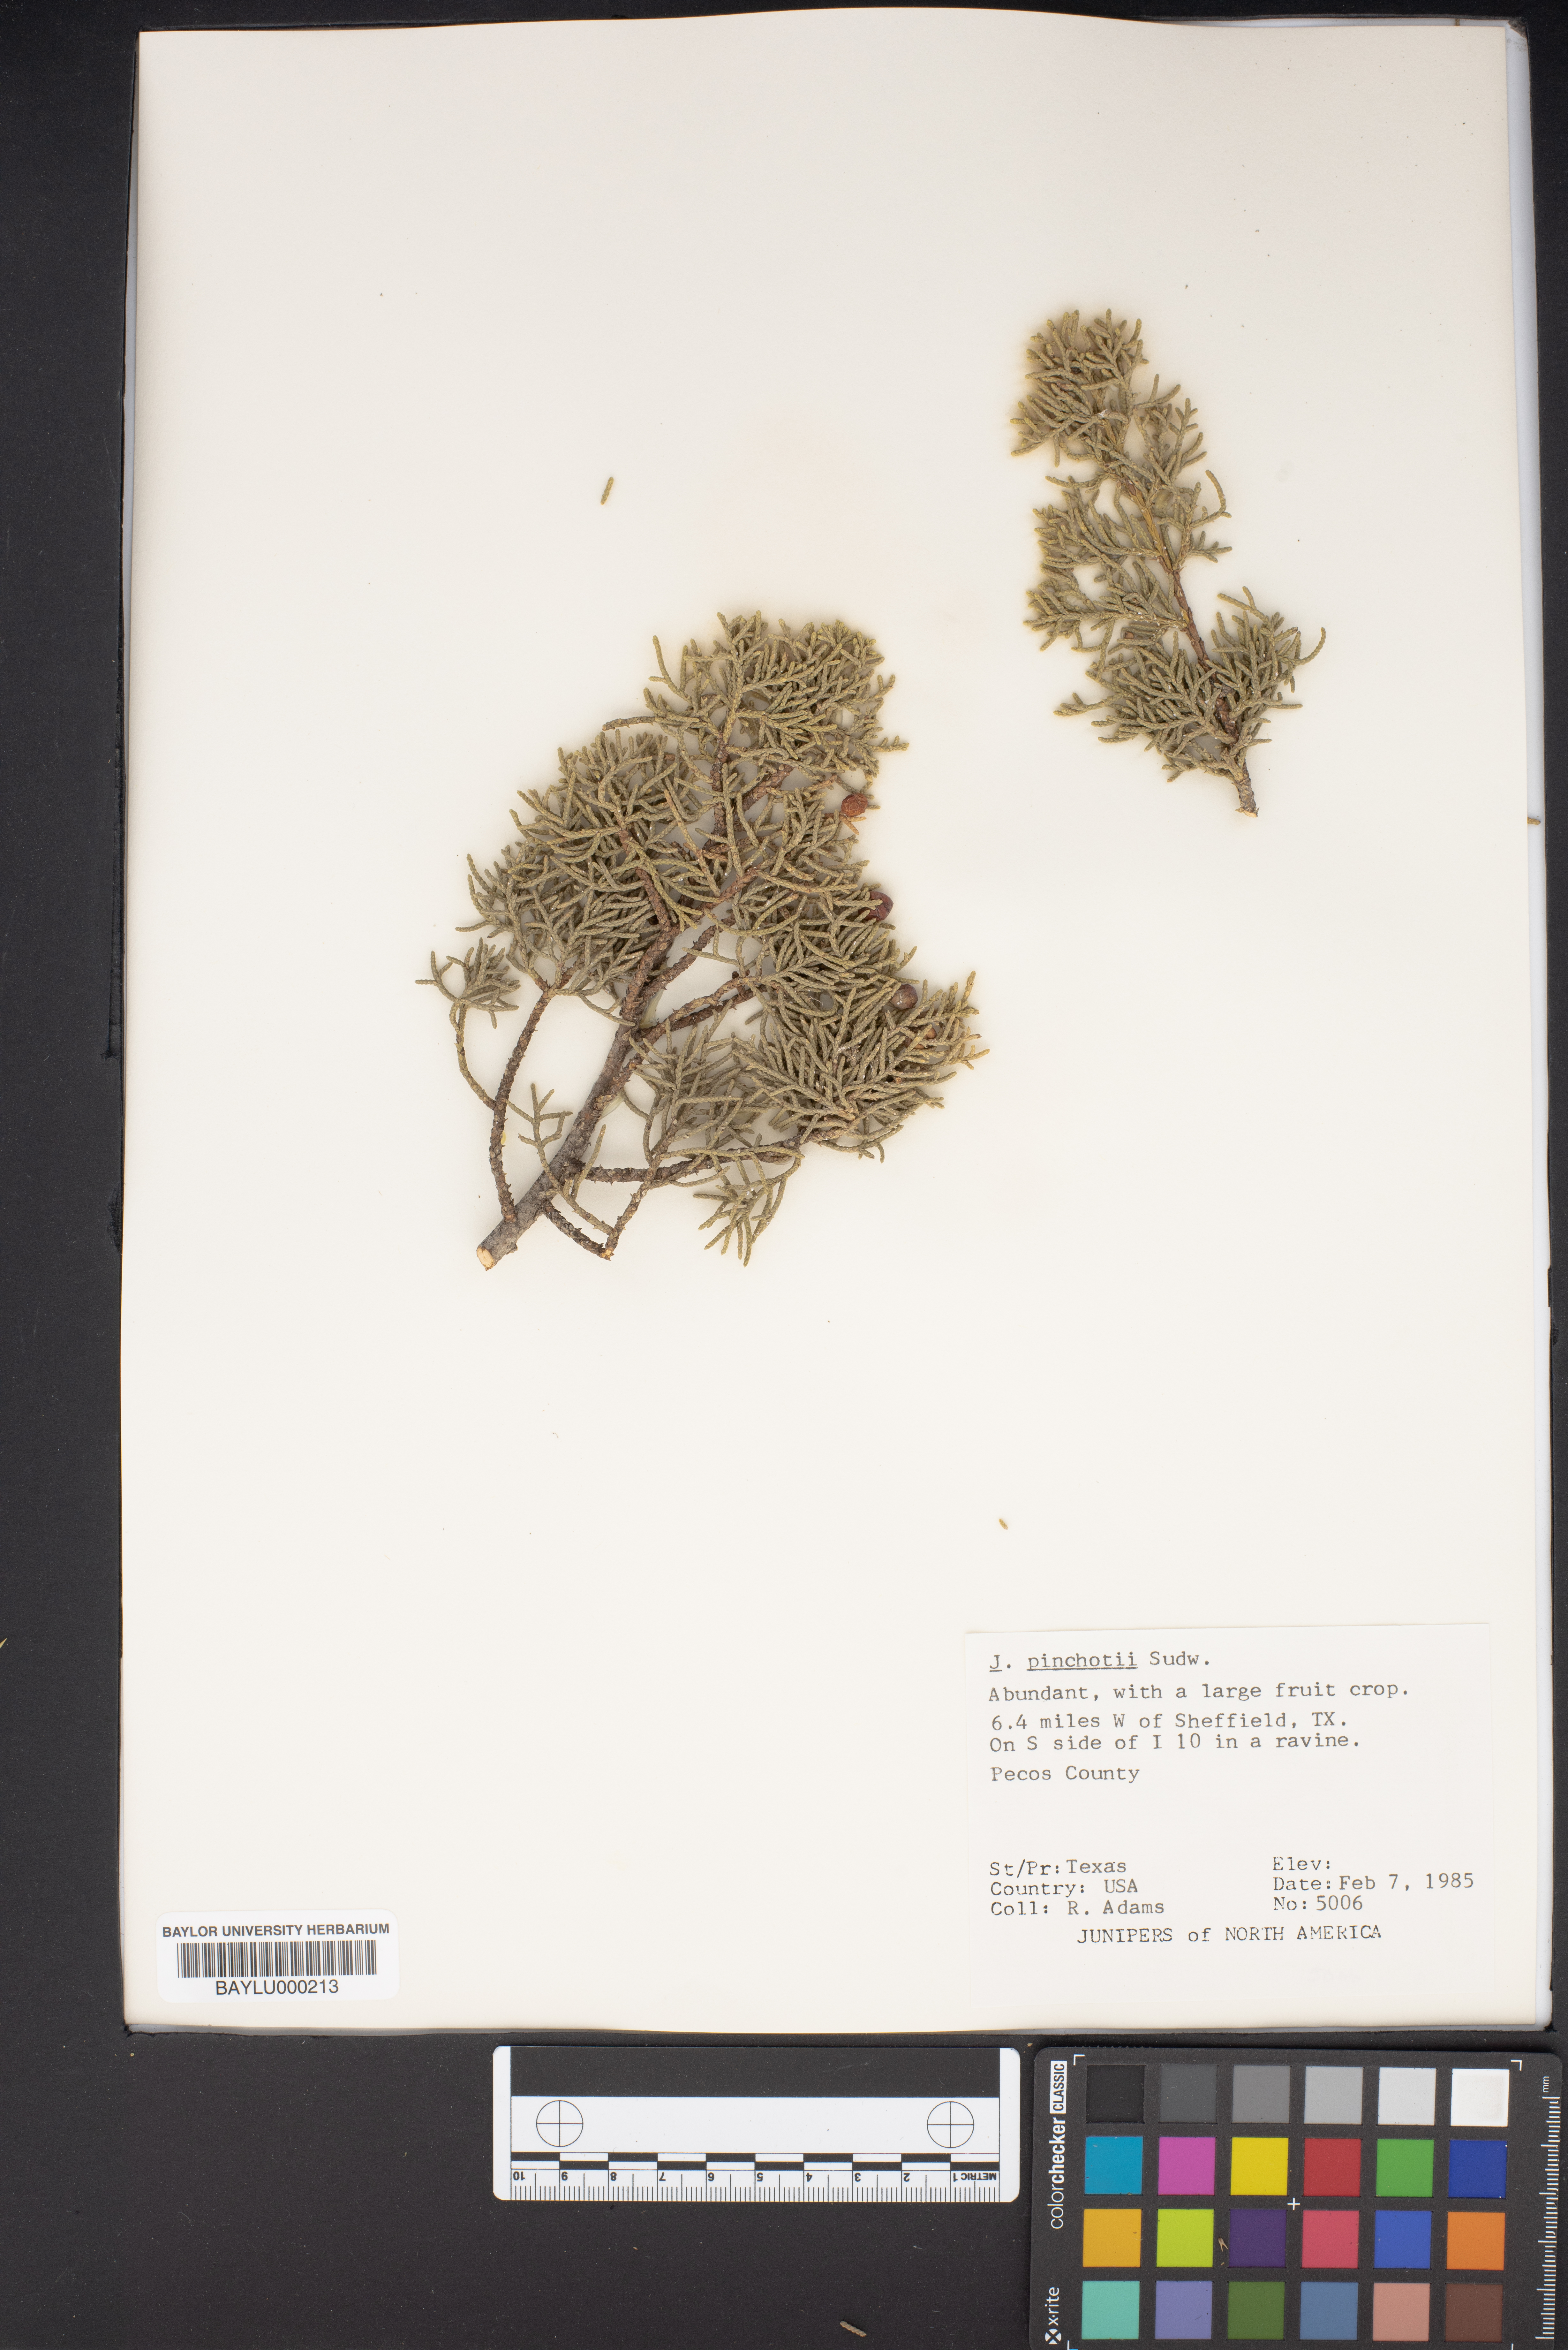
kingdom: Plantae
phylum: Tracheophyta
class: Pinopsida
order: Pinales
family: Cupressaceae
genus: Juniperus
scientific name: Juniperus pinchotii
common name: Pinchot juniper
